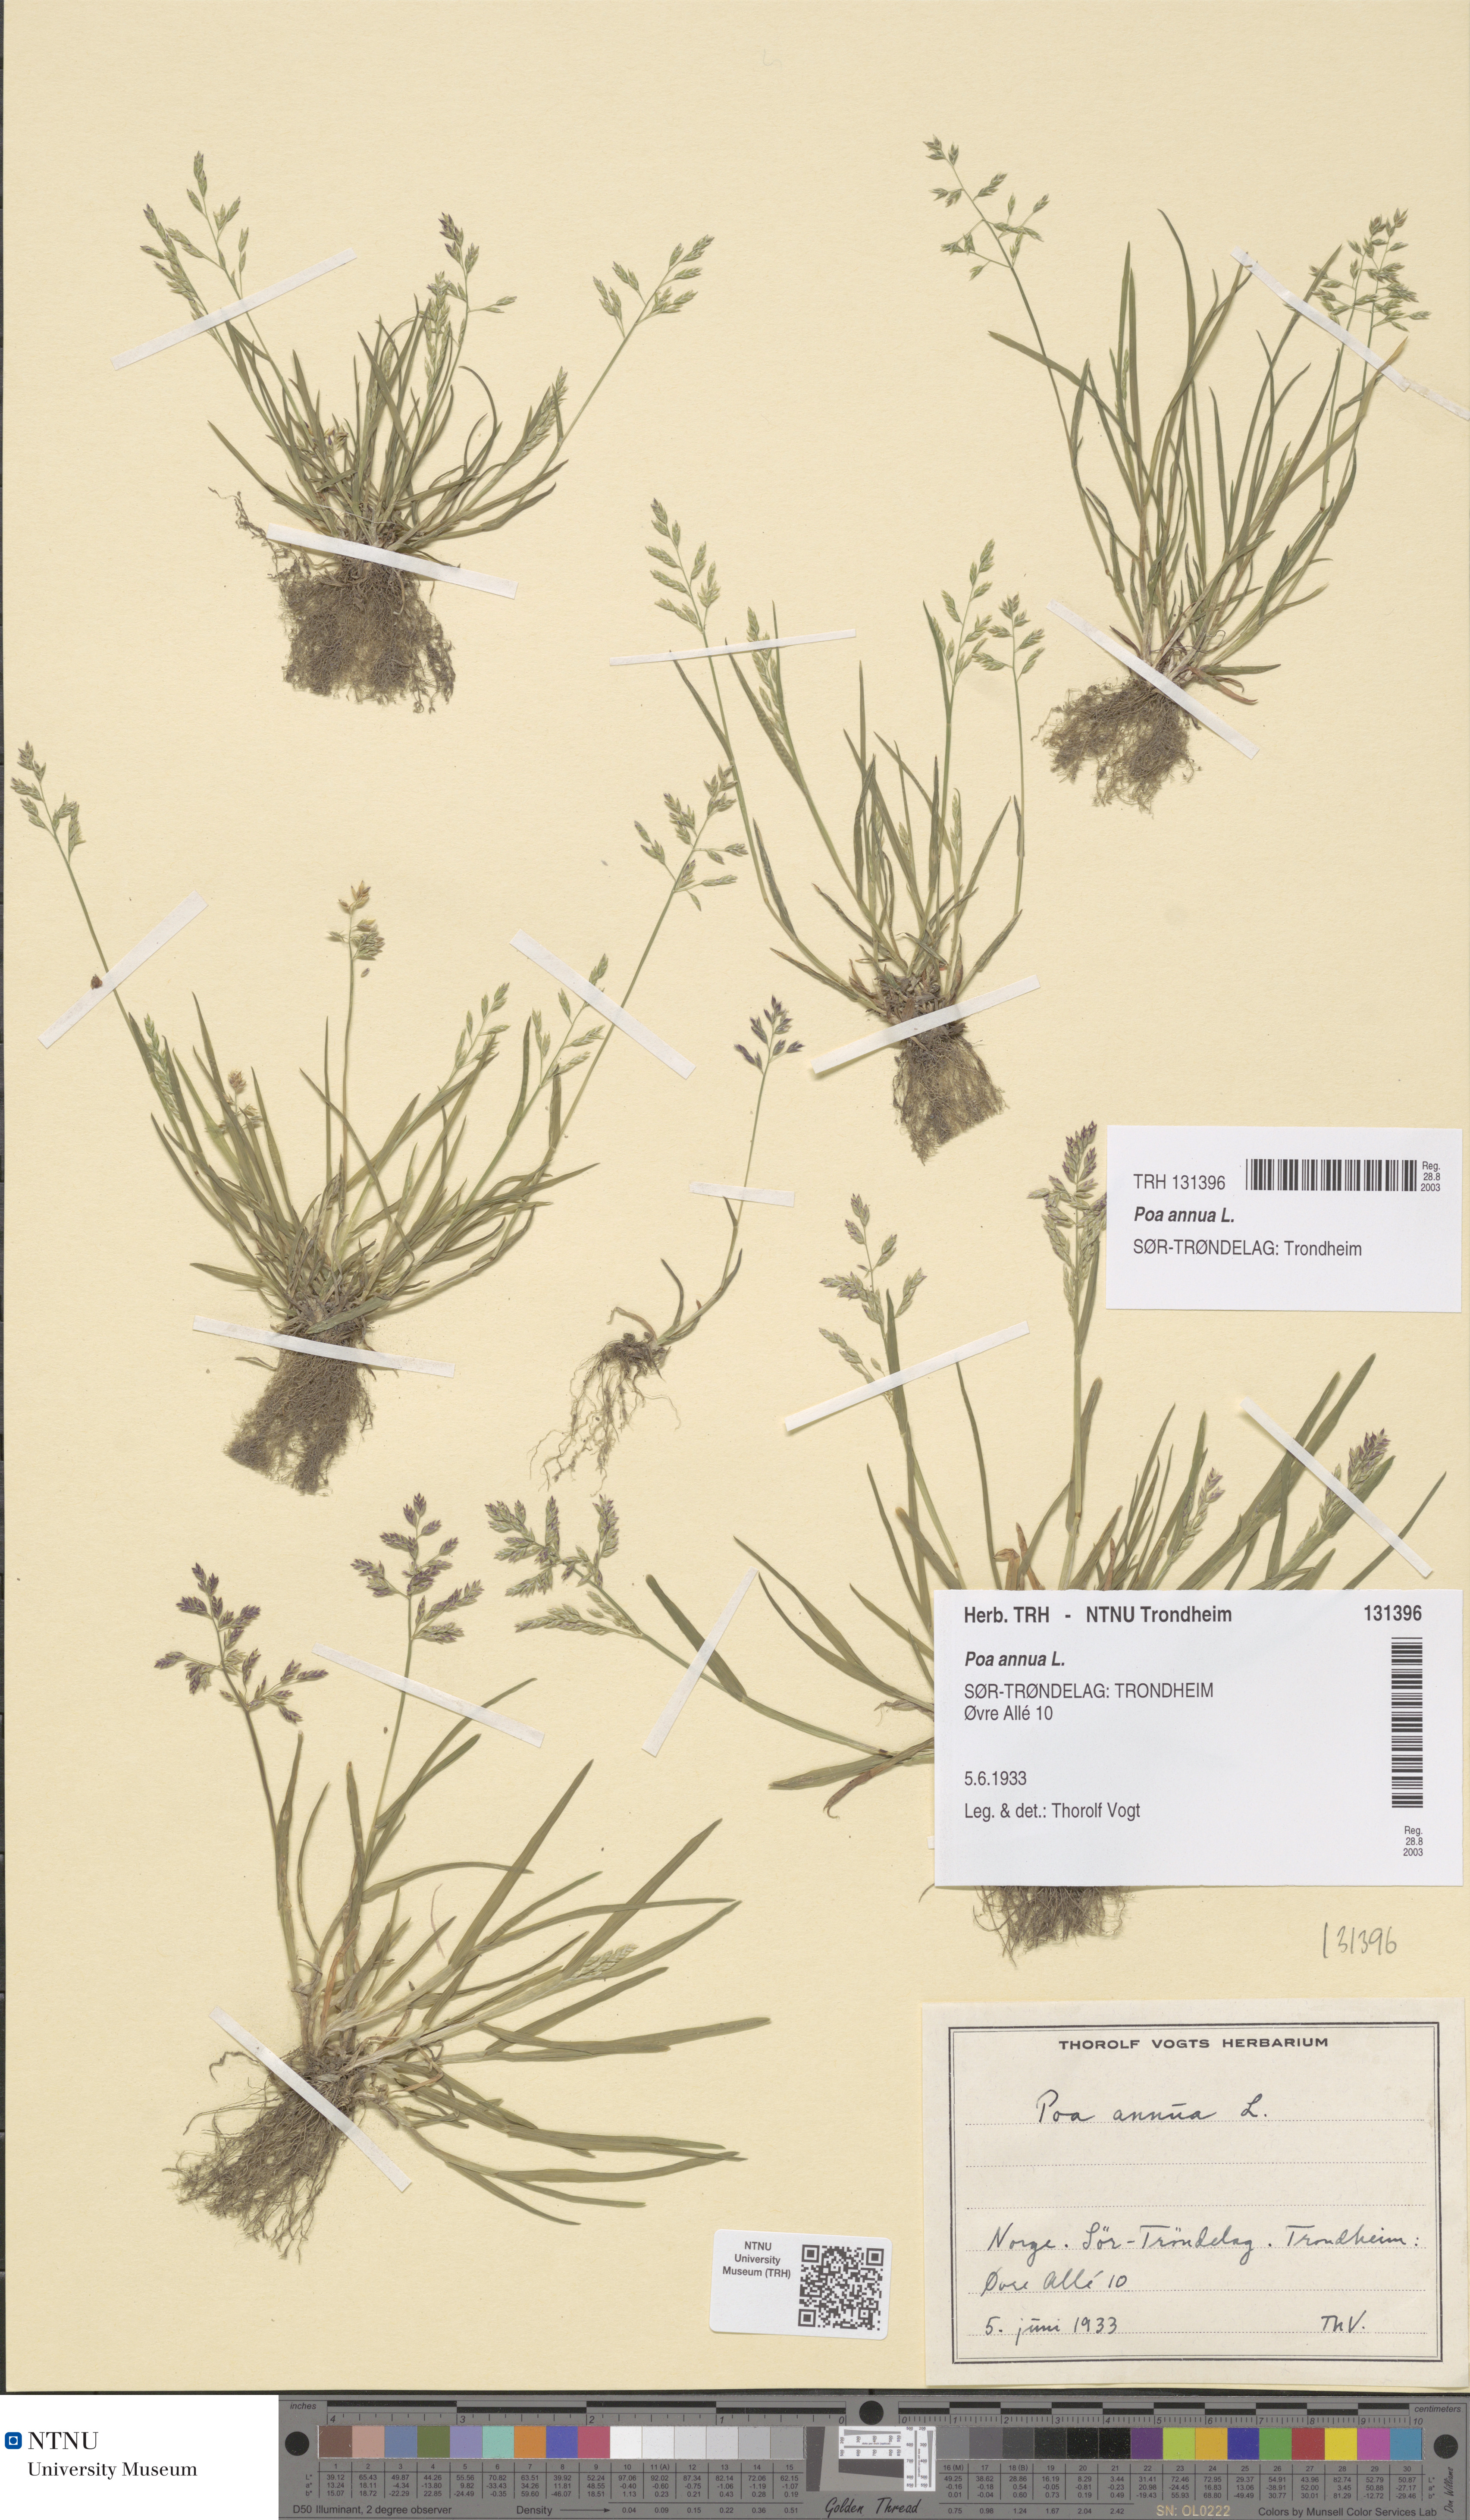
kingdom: Plantae
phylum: Tracheophyta
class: Liliopsida
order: Poales
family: Poaceae
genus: Poa
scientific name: Poa annua
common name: Annual bluegrass
